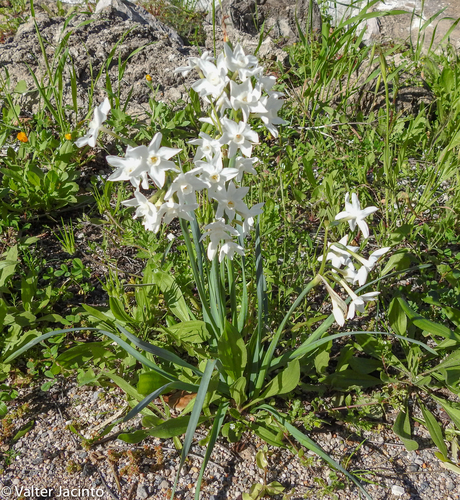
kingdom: Plantae
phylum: Tracheophyta
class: Liliopsida
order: Asparagales
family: Amaryllidaceae
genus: Narcissus
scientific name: Narcissus papyraceus
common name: Paper-white daffodil
